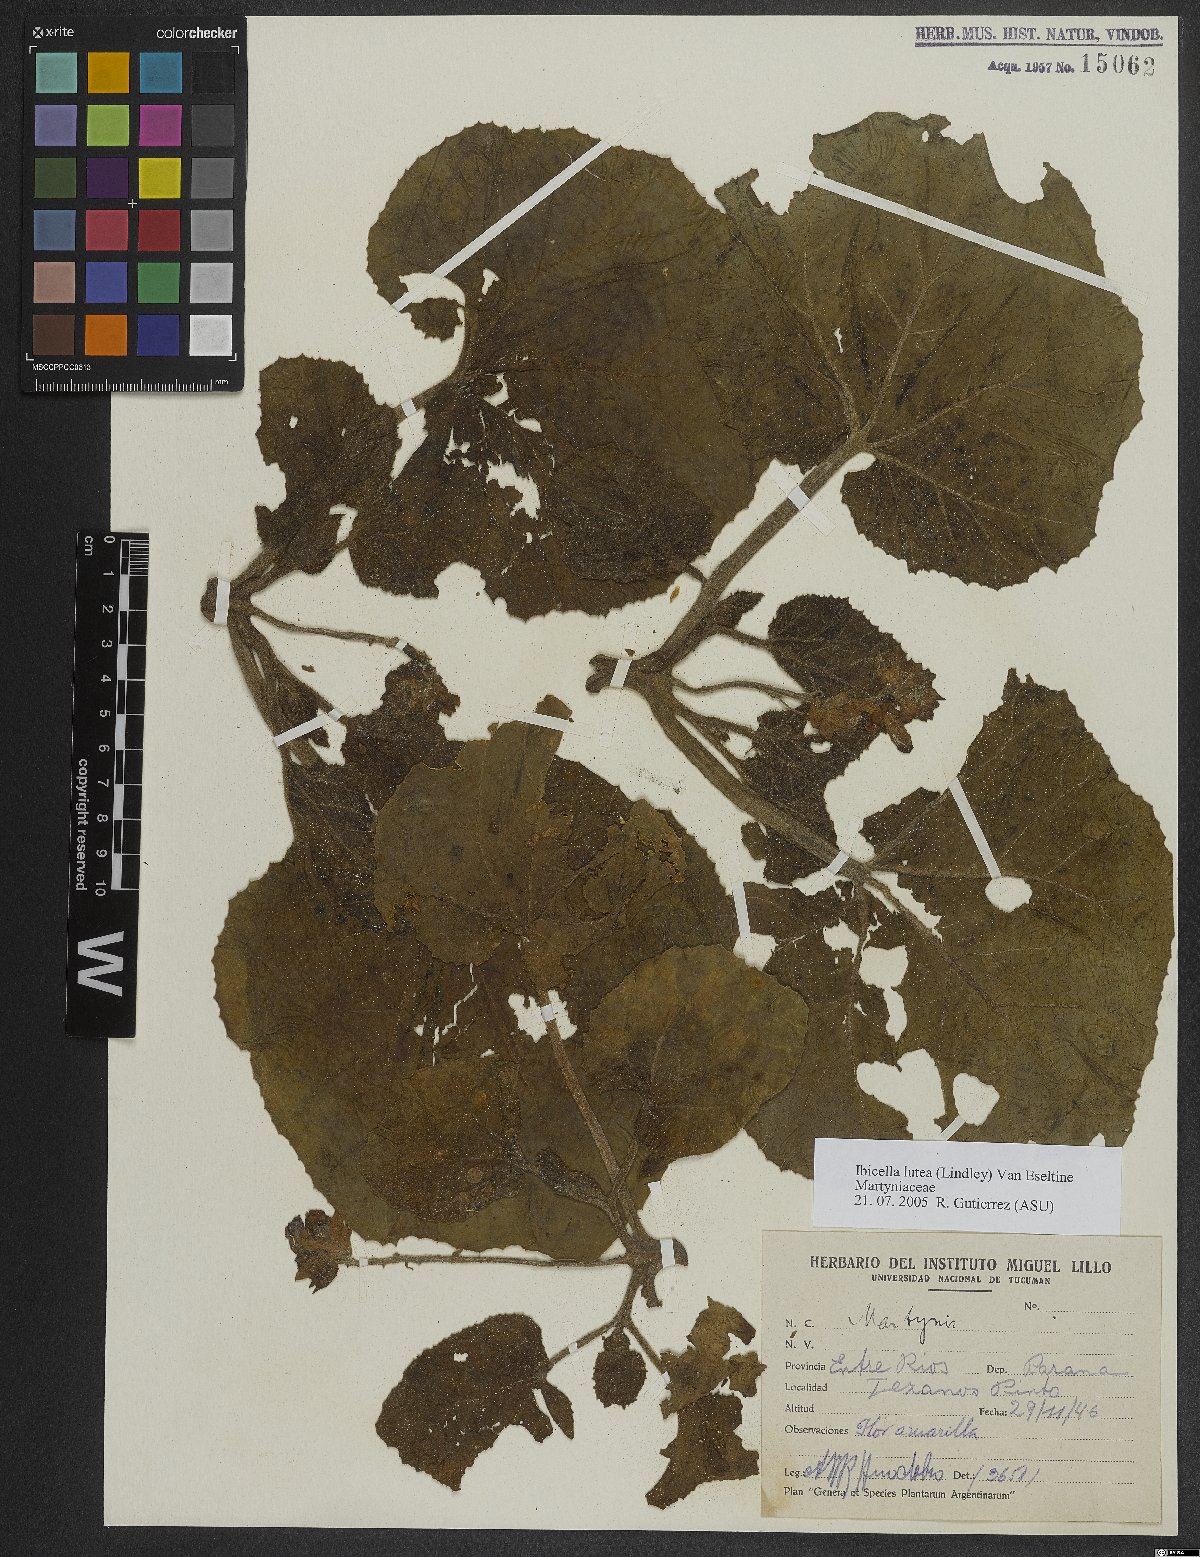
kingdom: Plantae
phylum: Tracheophyta
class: Magnoliopsida
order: Lamiales
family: Martyniaceae
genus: Ibicella
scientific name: Ibicella lutea
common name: Yellow unicorn-plant
